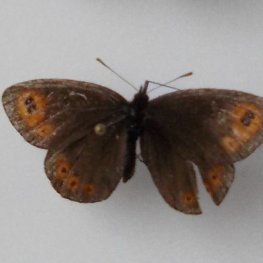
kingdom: Animalia
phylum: Arthropoda
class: Insecta
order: Lepidoptera
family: Nymphalidae
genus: Erebia
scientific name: Erebia epipsodea
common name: Common Alpine
